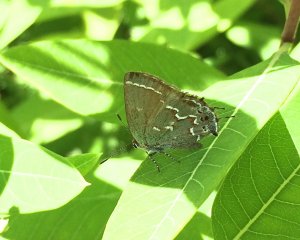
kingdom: Animalia
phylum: Arthropoda
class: Insecta
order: Lepidoptera
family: Lycaenidae
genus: Mitoura
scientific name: Mitoura gryneus
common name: Juniper Hairstreak
